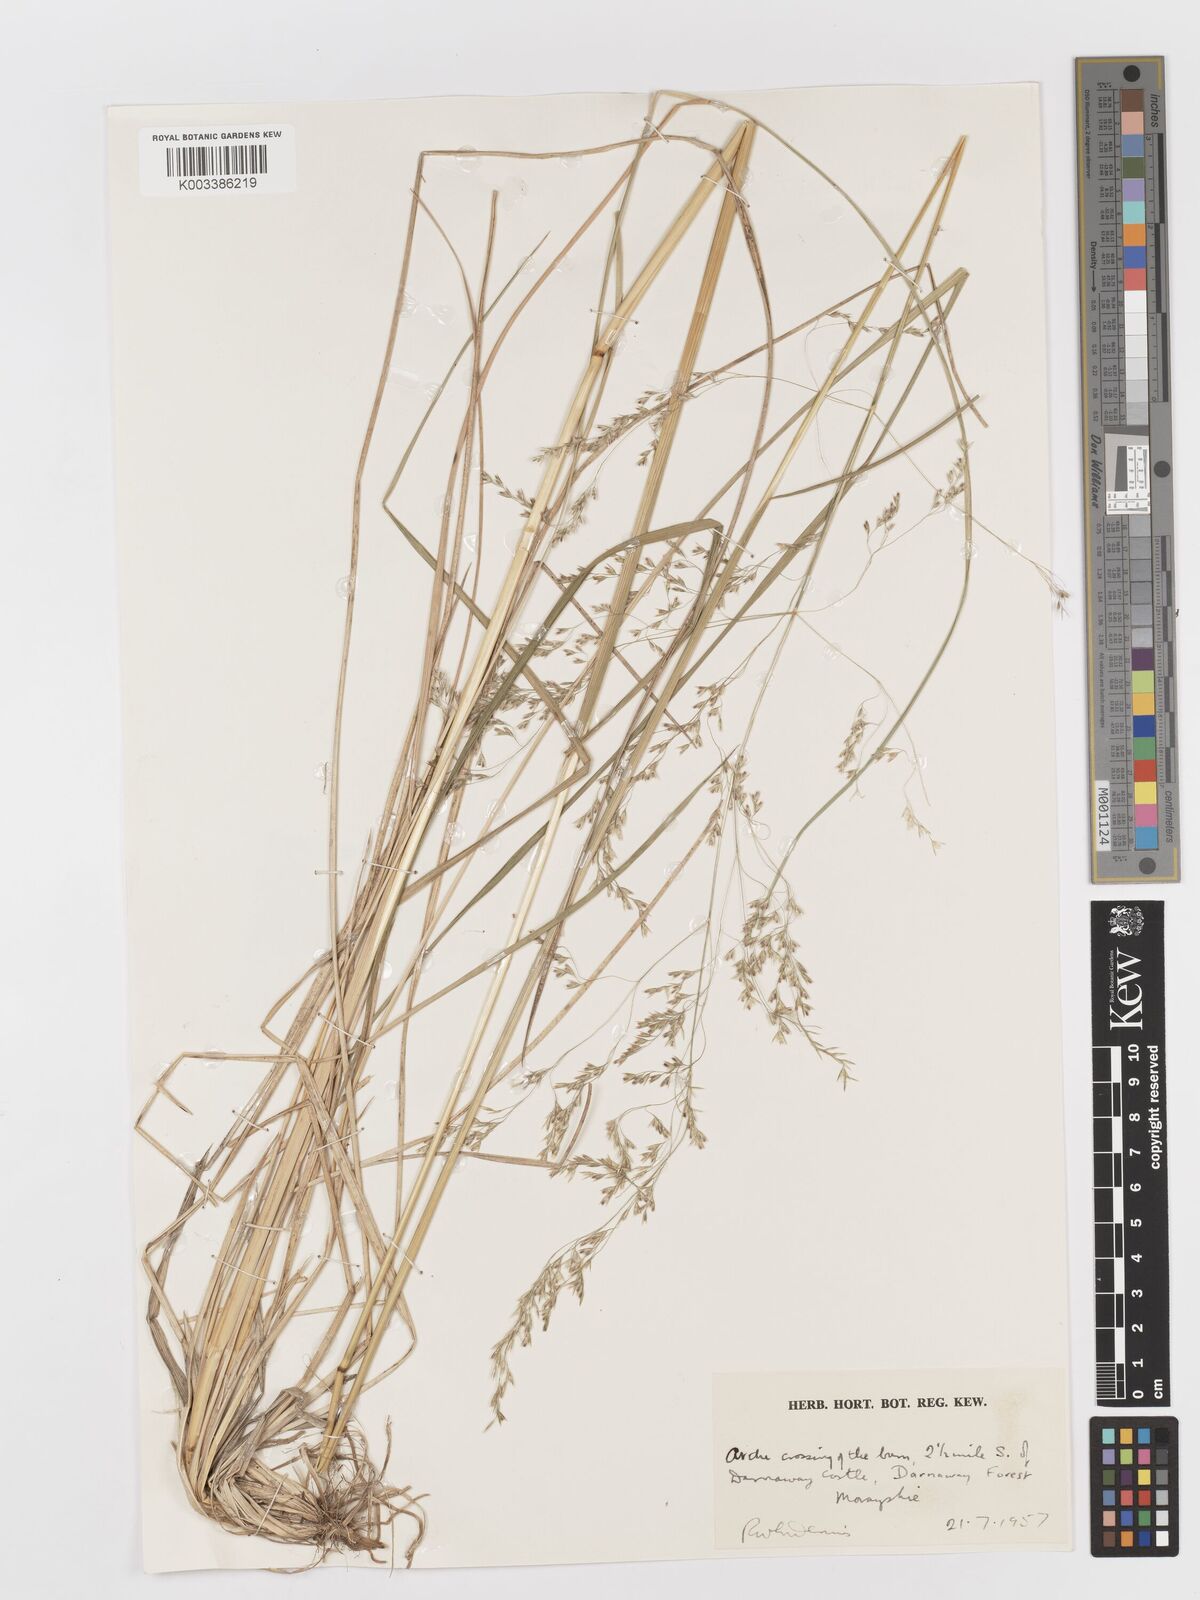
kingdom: Plantae
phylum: Tracheophyta
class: Liliopsida
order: Poales
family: Poaceae
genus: Deschampsia
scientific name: Deschampsia
